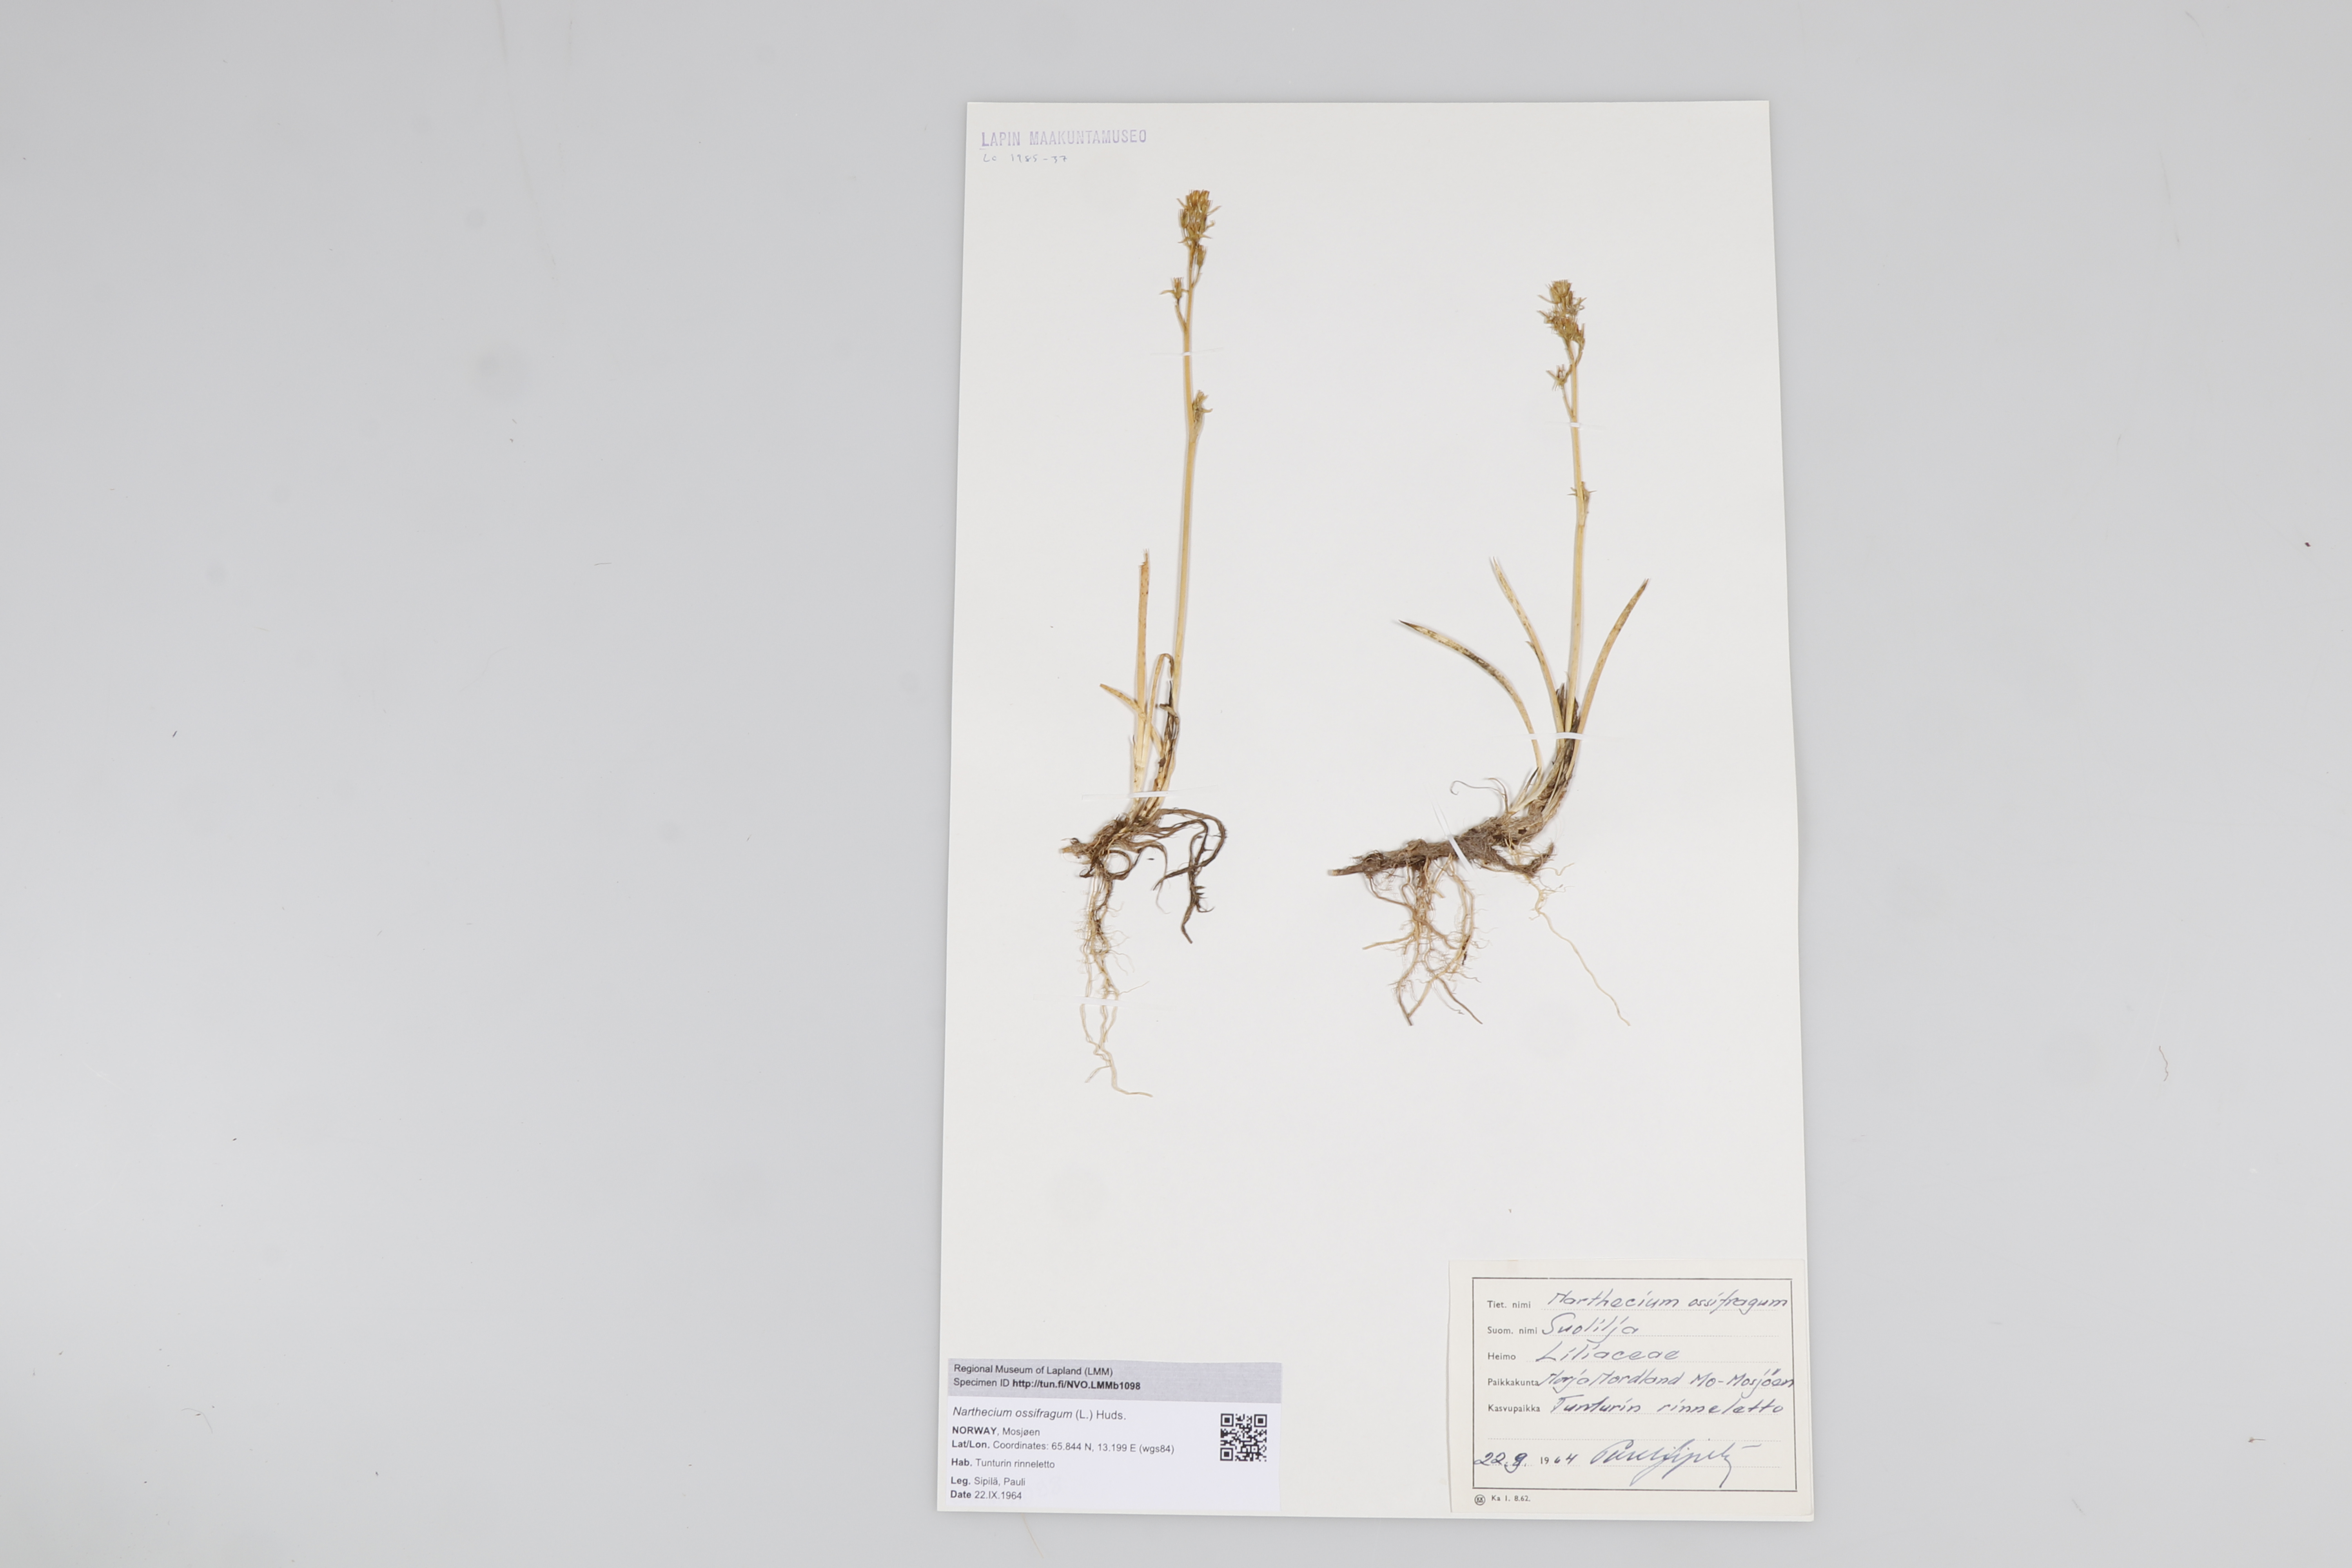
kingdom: Plantae
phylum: Tracheophyta
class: Liliopsida
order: Dioscoreales
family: Nartheciaceae
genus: Narthecium
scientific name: Narthecium ossifragum
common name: Bog asphodel
